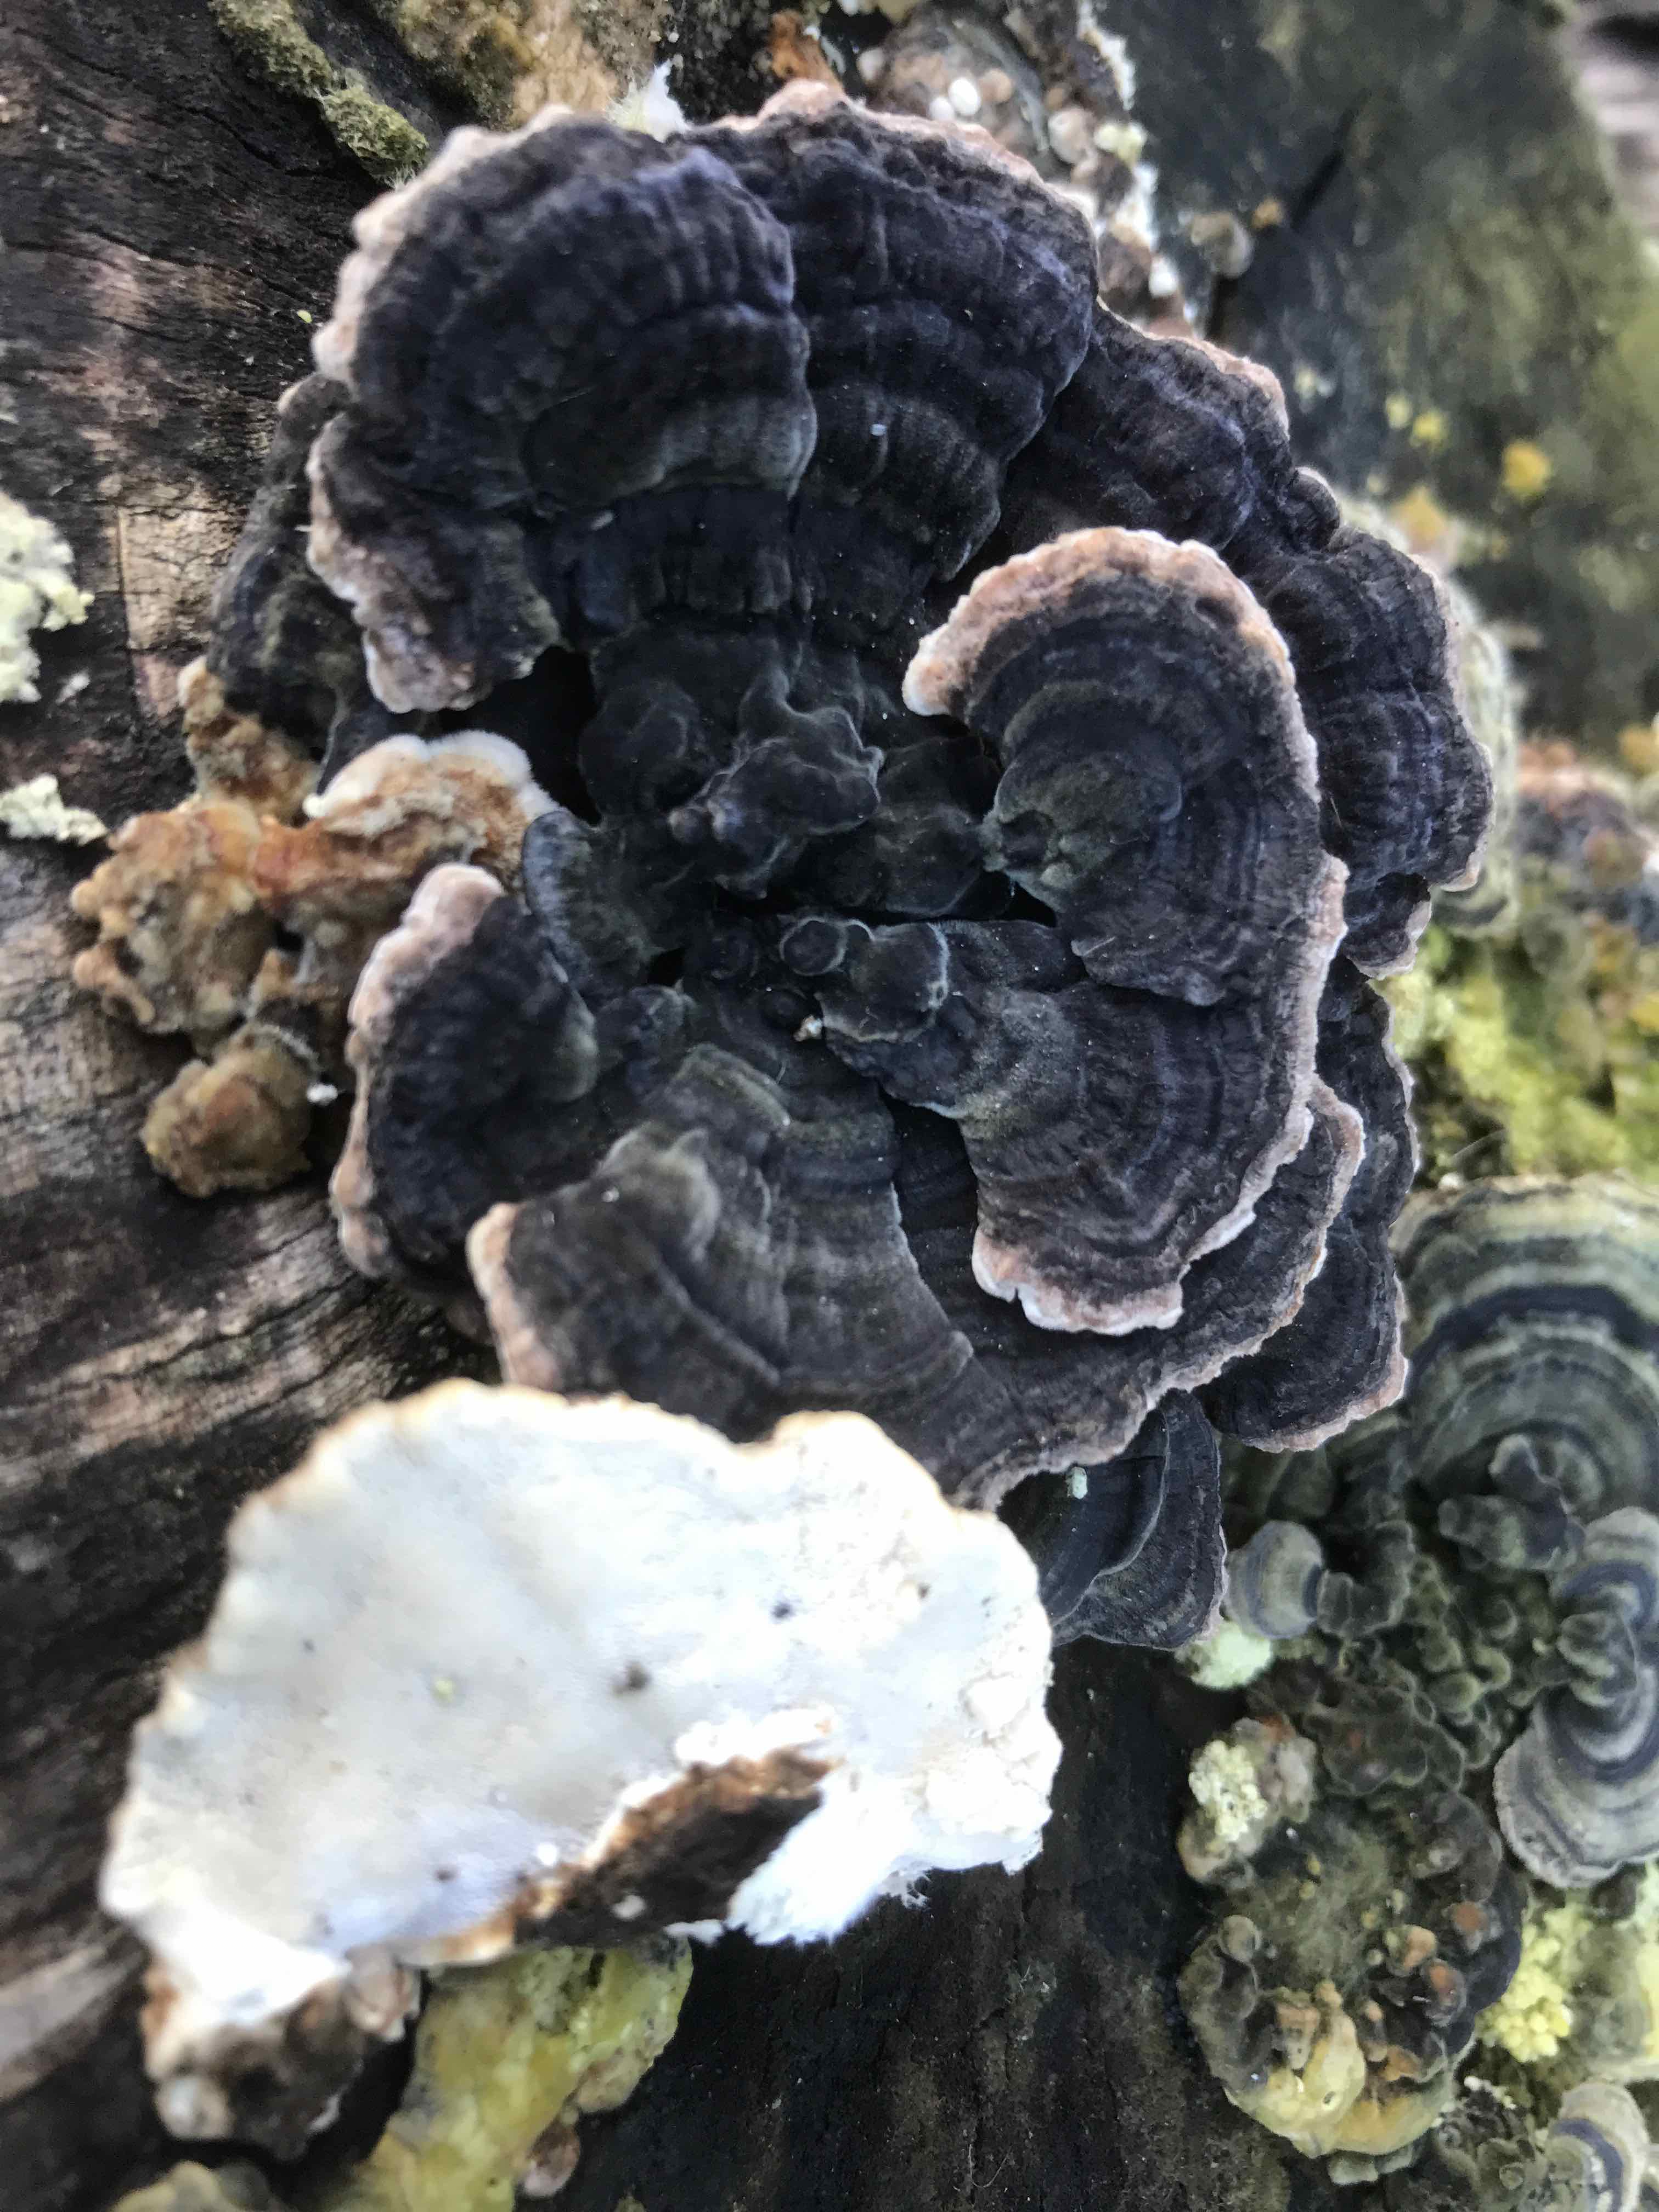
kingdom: Fungi
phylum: Basidiomycota
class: Agaricomycetes
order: Polyporales
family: Polyporaceae
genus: Trametes
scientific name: Trametes versicolor
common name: broget læderporesvamp
